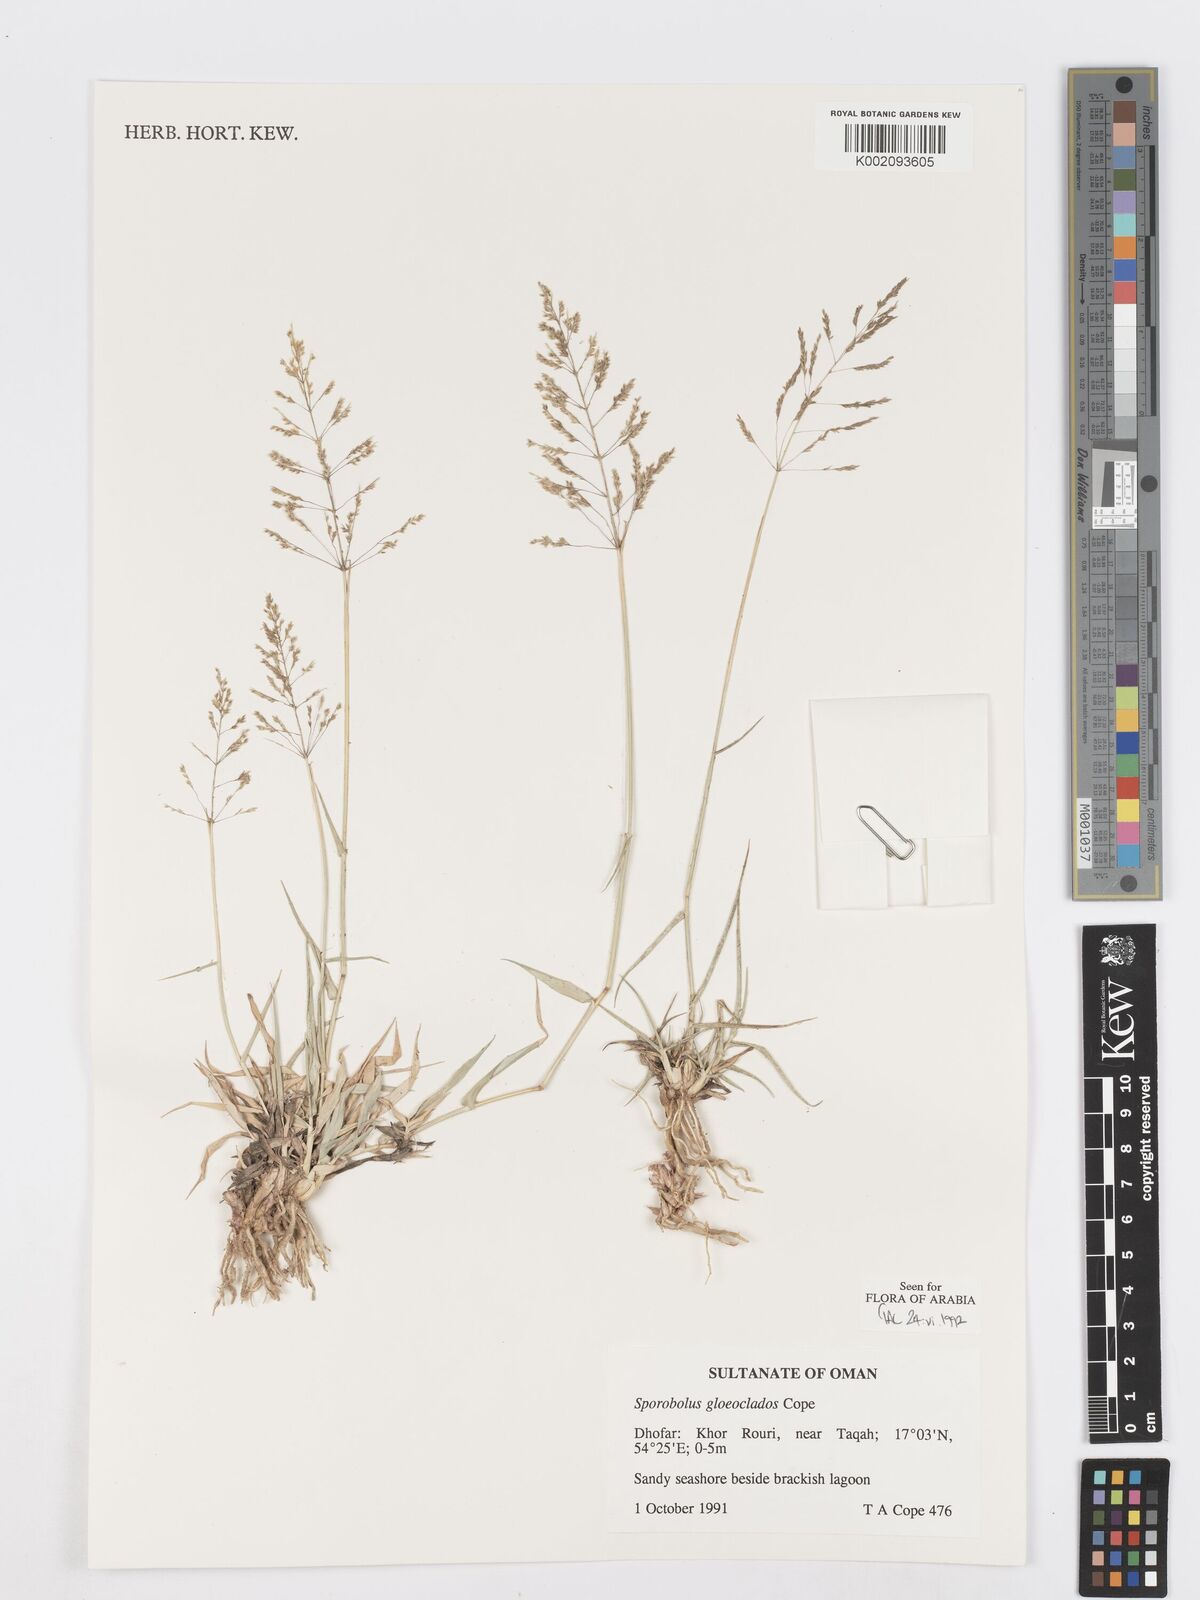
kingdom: Plantae
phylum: Tracheophyta
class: Liliopsida
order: Poales
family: Poaceae
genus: Sporobolus
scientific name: Sporobolus gloeoclados
